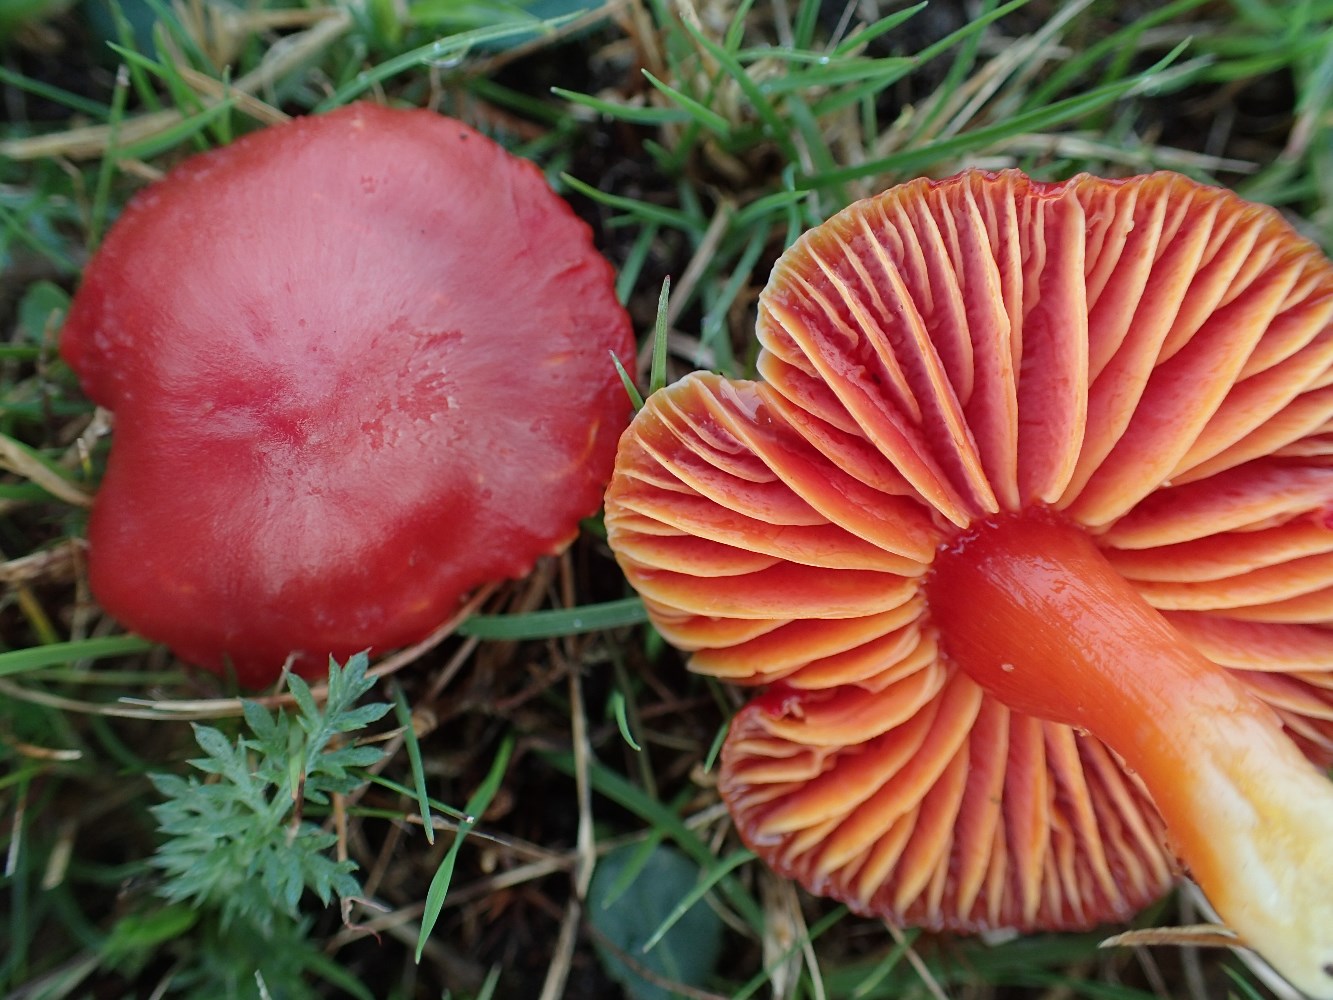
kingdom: Fungi
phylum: Basidiomycota
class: Agaricomycetes
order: Agaricales
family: Hygrophoraceae
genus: Hygrocybe
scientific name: Hygrocybe coccinea
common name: cinnober-vokshat
